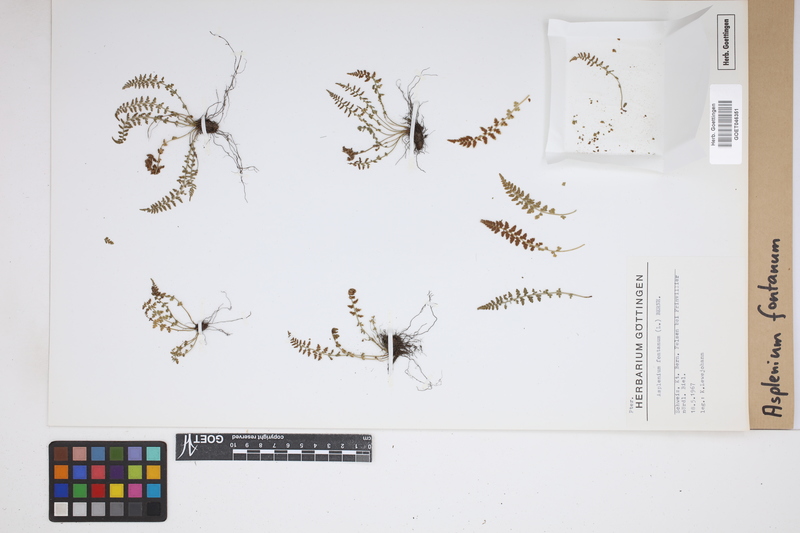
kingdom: Plantae
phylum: Tracheophyta
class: Polypodiopsida
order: Polypodiales
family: Aspleniaceae
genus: Asplenium
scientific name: Asplenium fontanum
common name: Fountain spleenwort
